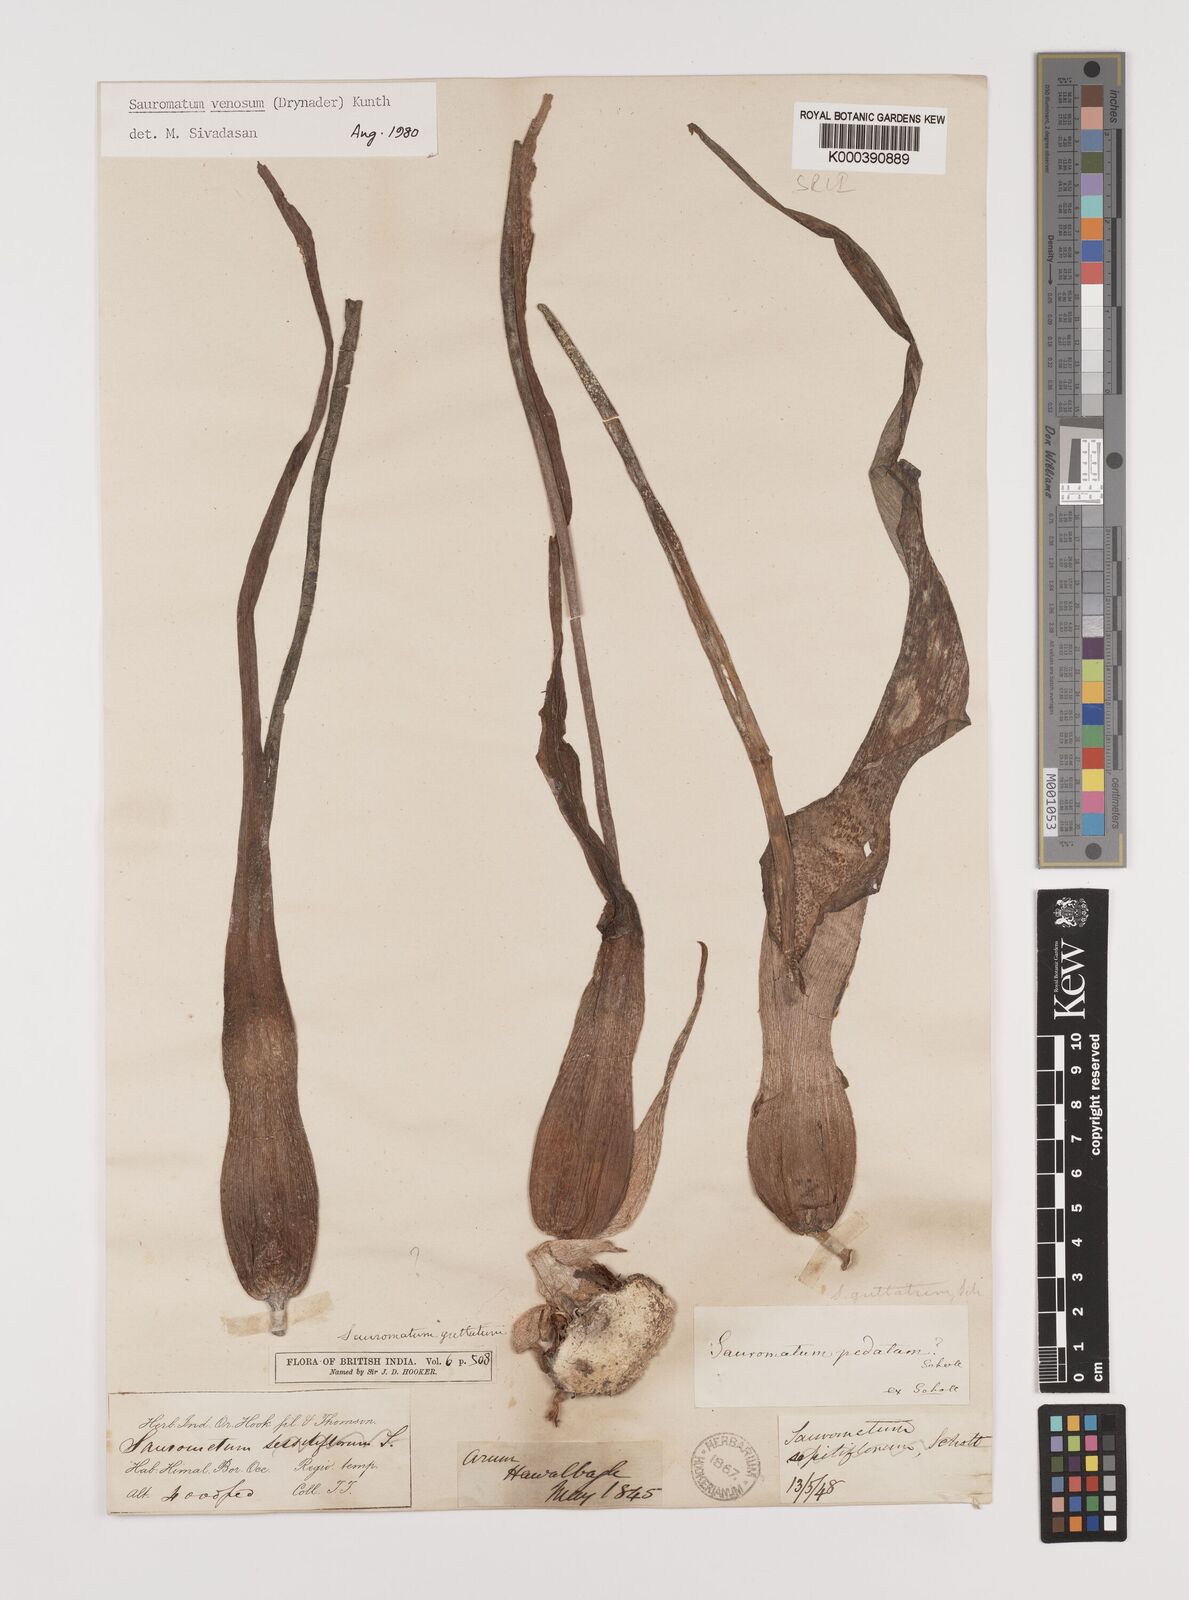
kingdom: Plantae
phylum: Tracheophyta
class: Liliopsida
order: Alismatales
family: Araceae
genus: Sauromatum
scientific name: Sauromatum venosum
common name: Voodoo lily
